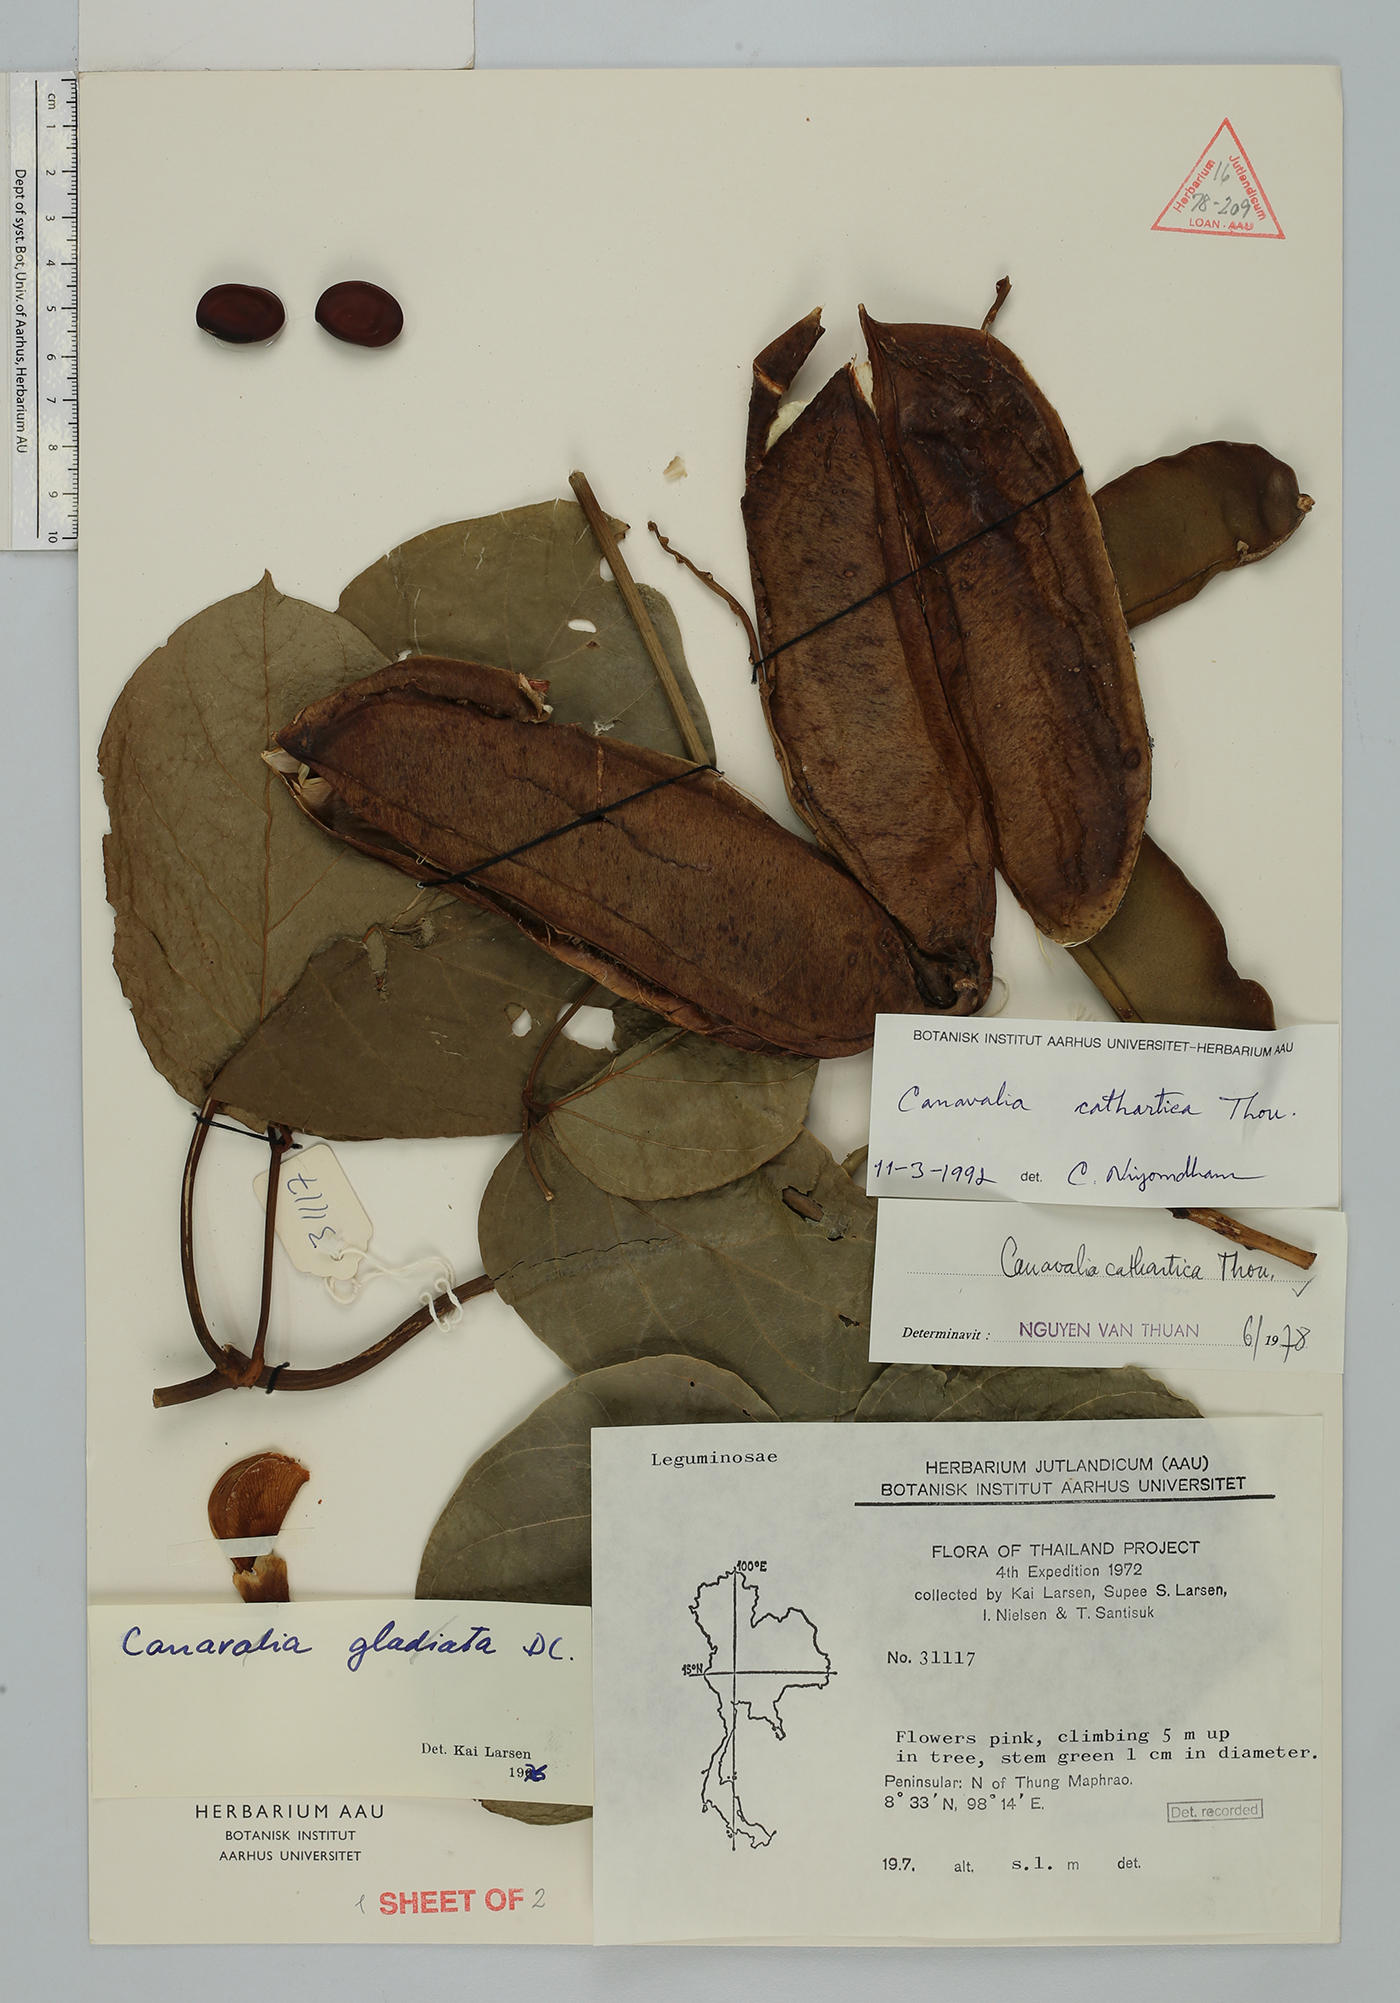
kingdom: Plantae
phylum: Tracheophyta
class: Magnoliopsida
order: Fabales
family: Fabaceae
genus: Canavalia
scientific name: Canavalia cathartica
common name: Maunaloa
